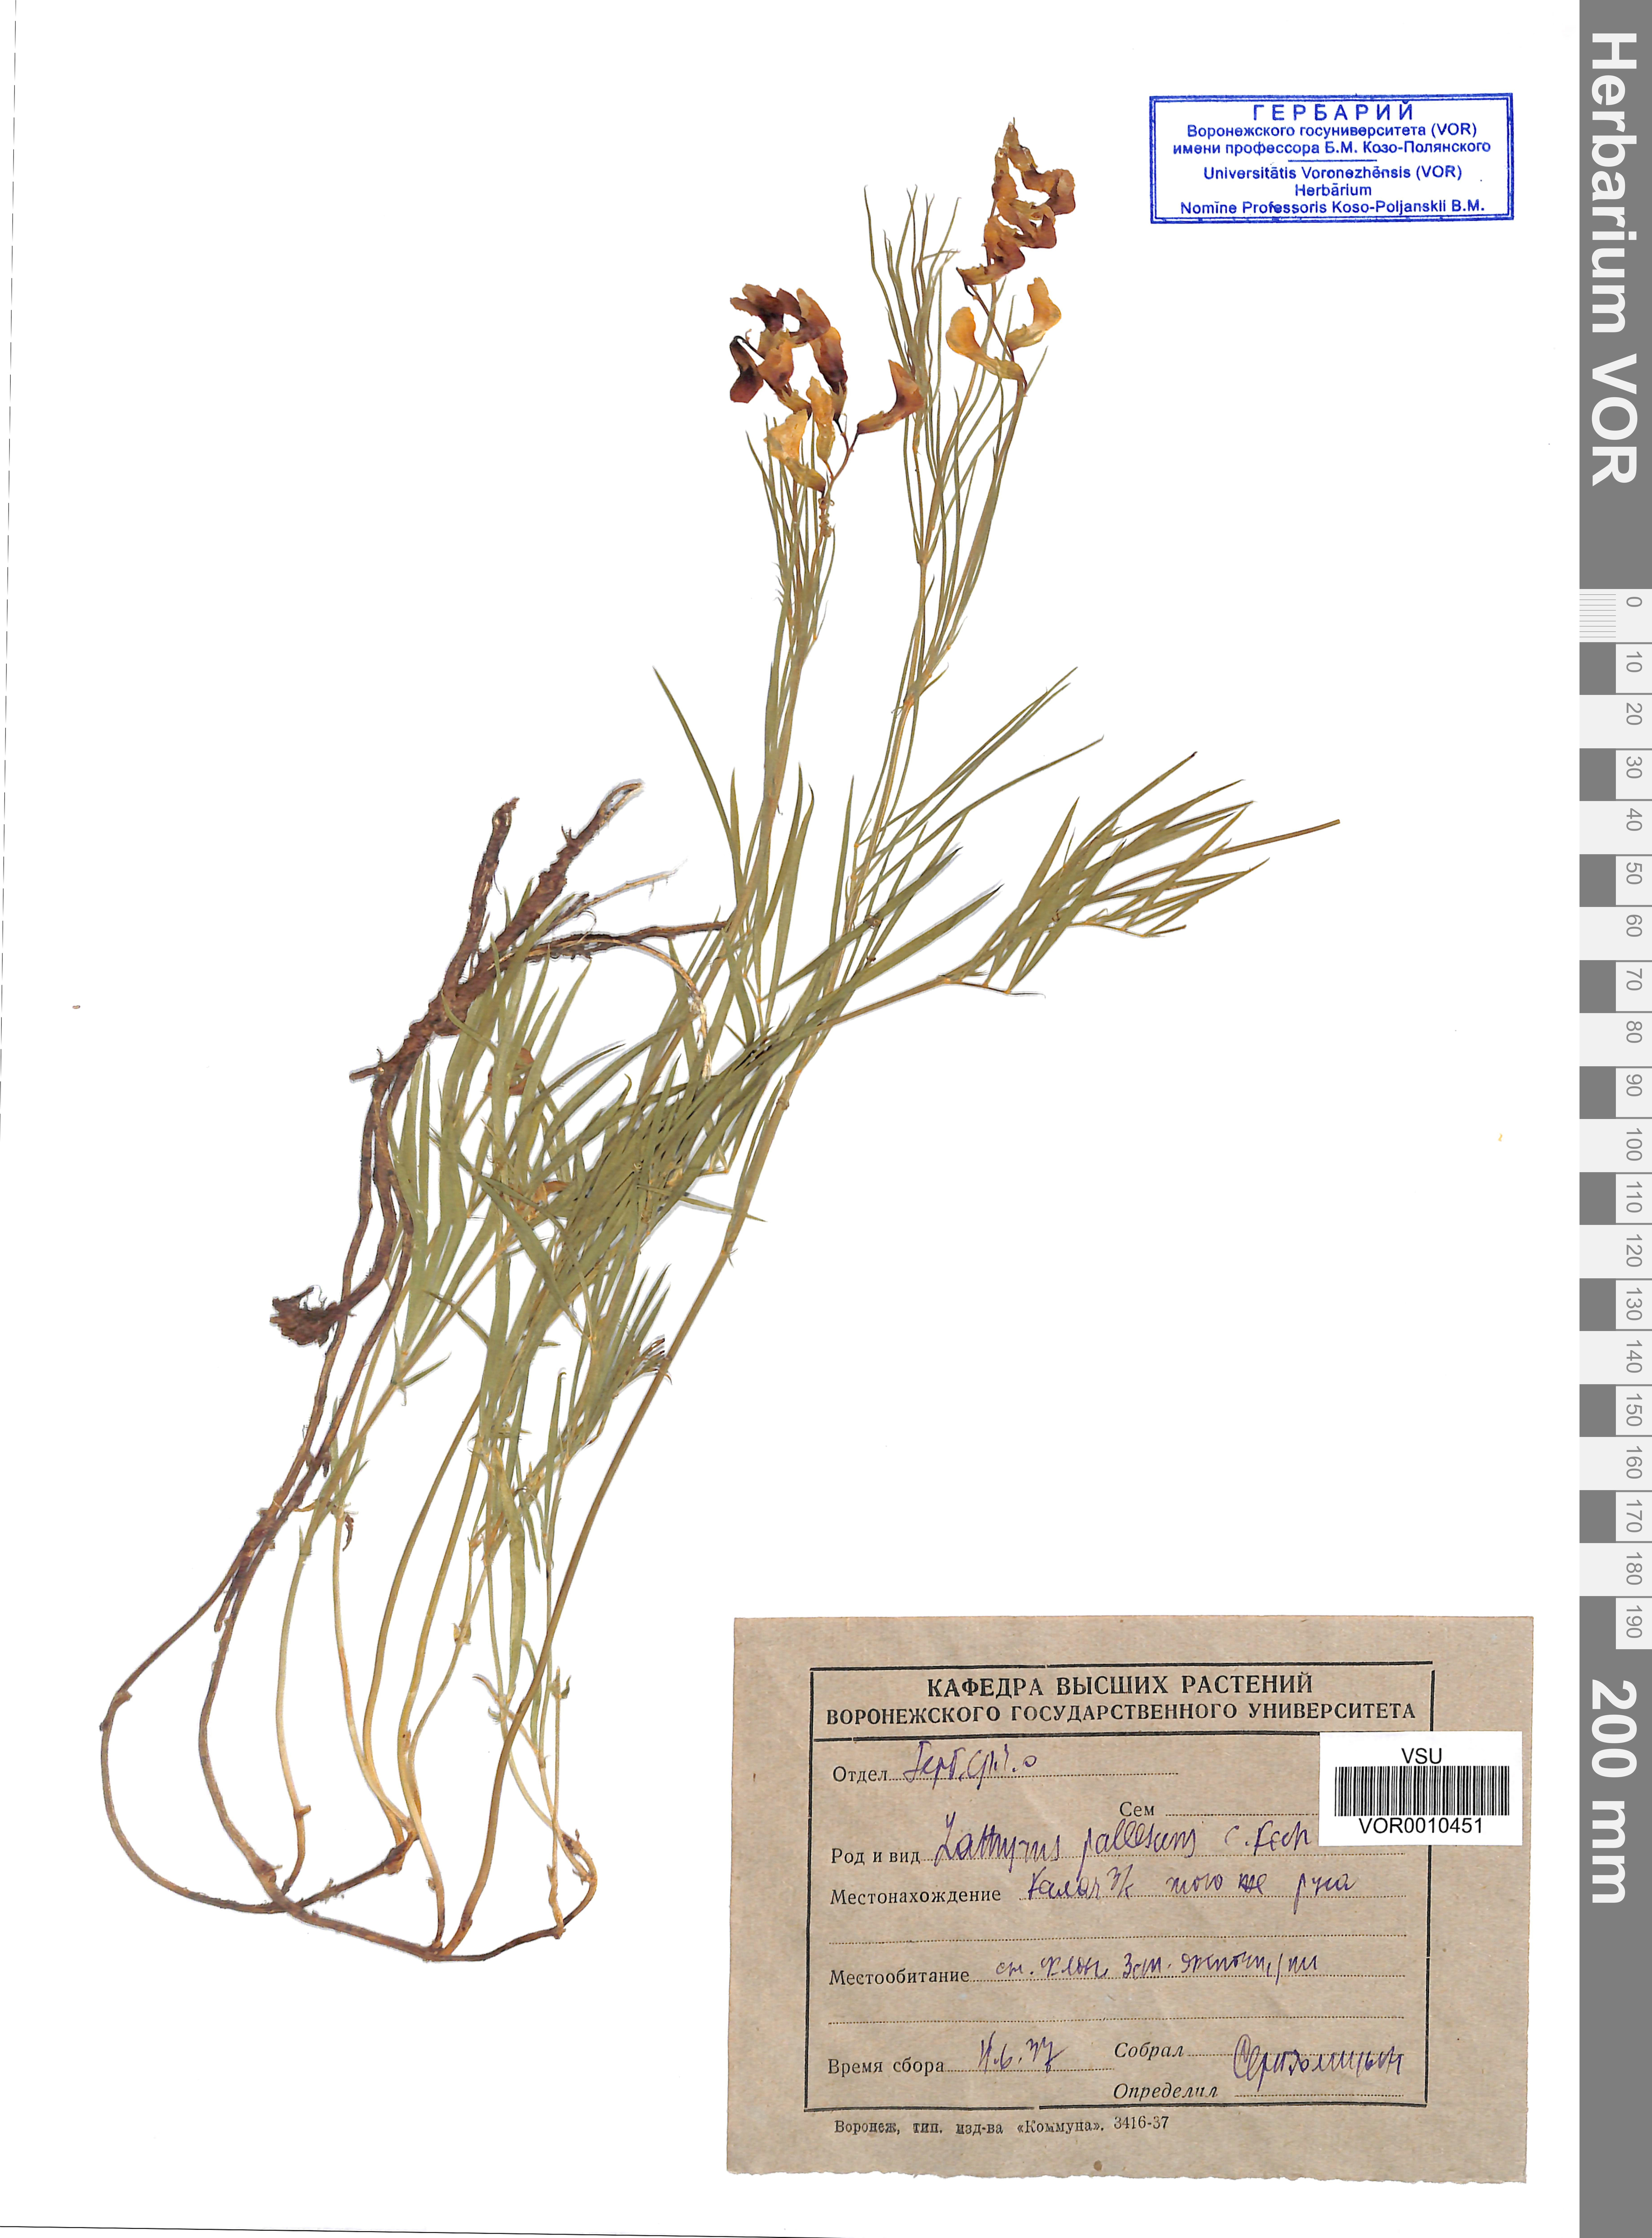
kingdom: Plantae
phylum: Tracheophyta
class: Magnoliopsida
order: Fabales
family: Fabaceae
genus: Lathyrus
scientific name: Lathyrus pallescens
